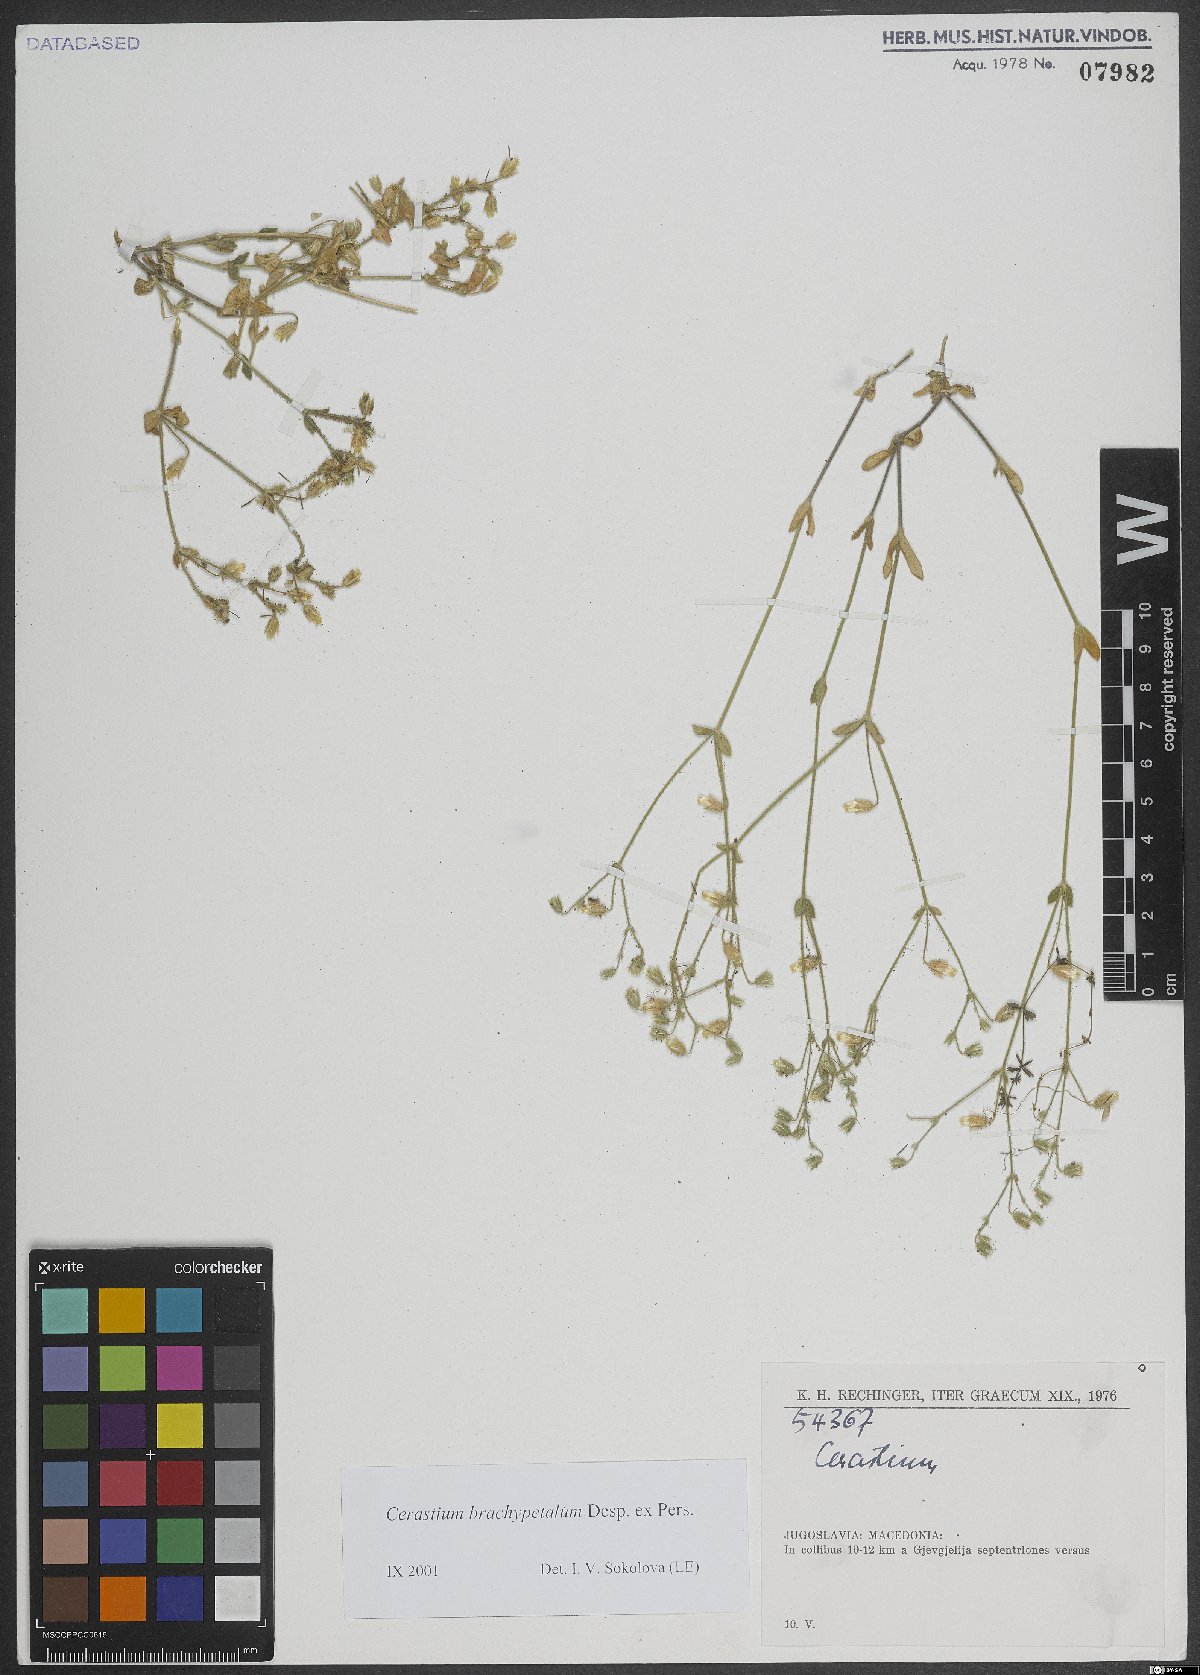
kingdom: Plantae
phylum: Tracheophyta
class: Magnoliopsida
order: Caryophyllales
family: Caryophyllaceae
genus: Cerastium
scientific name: Cerastium brachypetalum
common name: Grey mouse-ear
